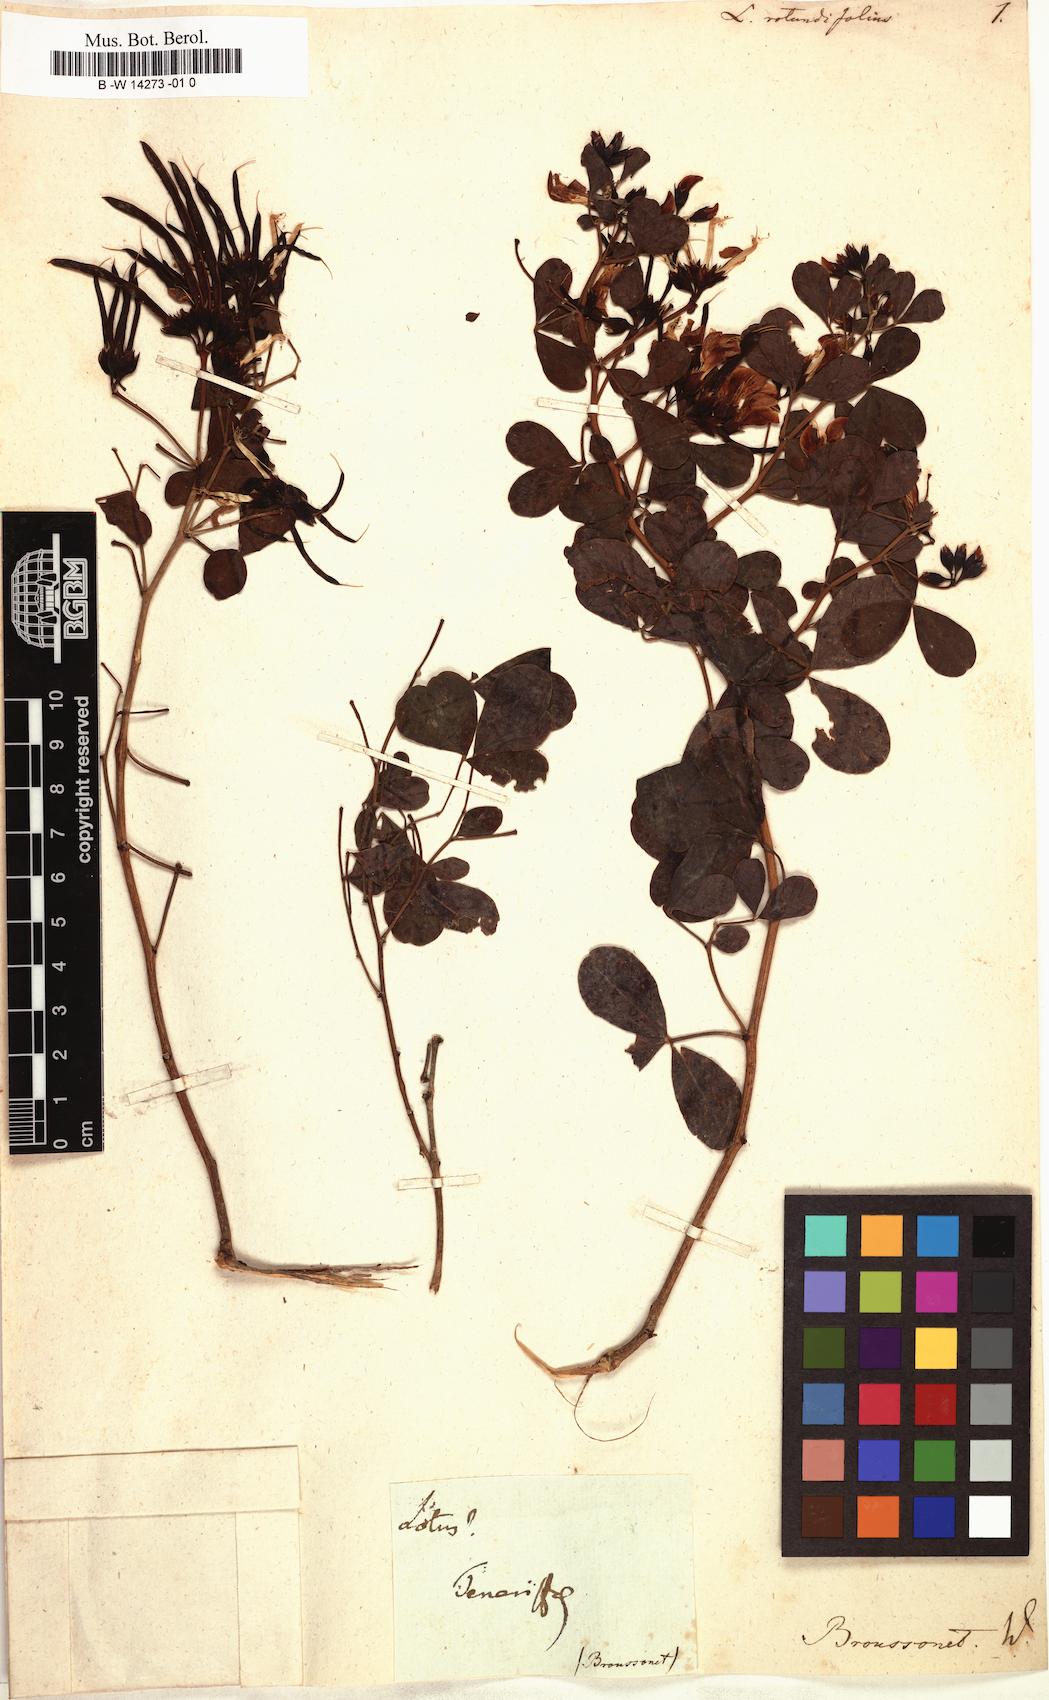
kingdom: Plantae
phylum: Tracheophyta
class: Magnoliopsida
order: Fabales
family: Fabaceae
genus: Lotus
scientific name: Lotus
